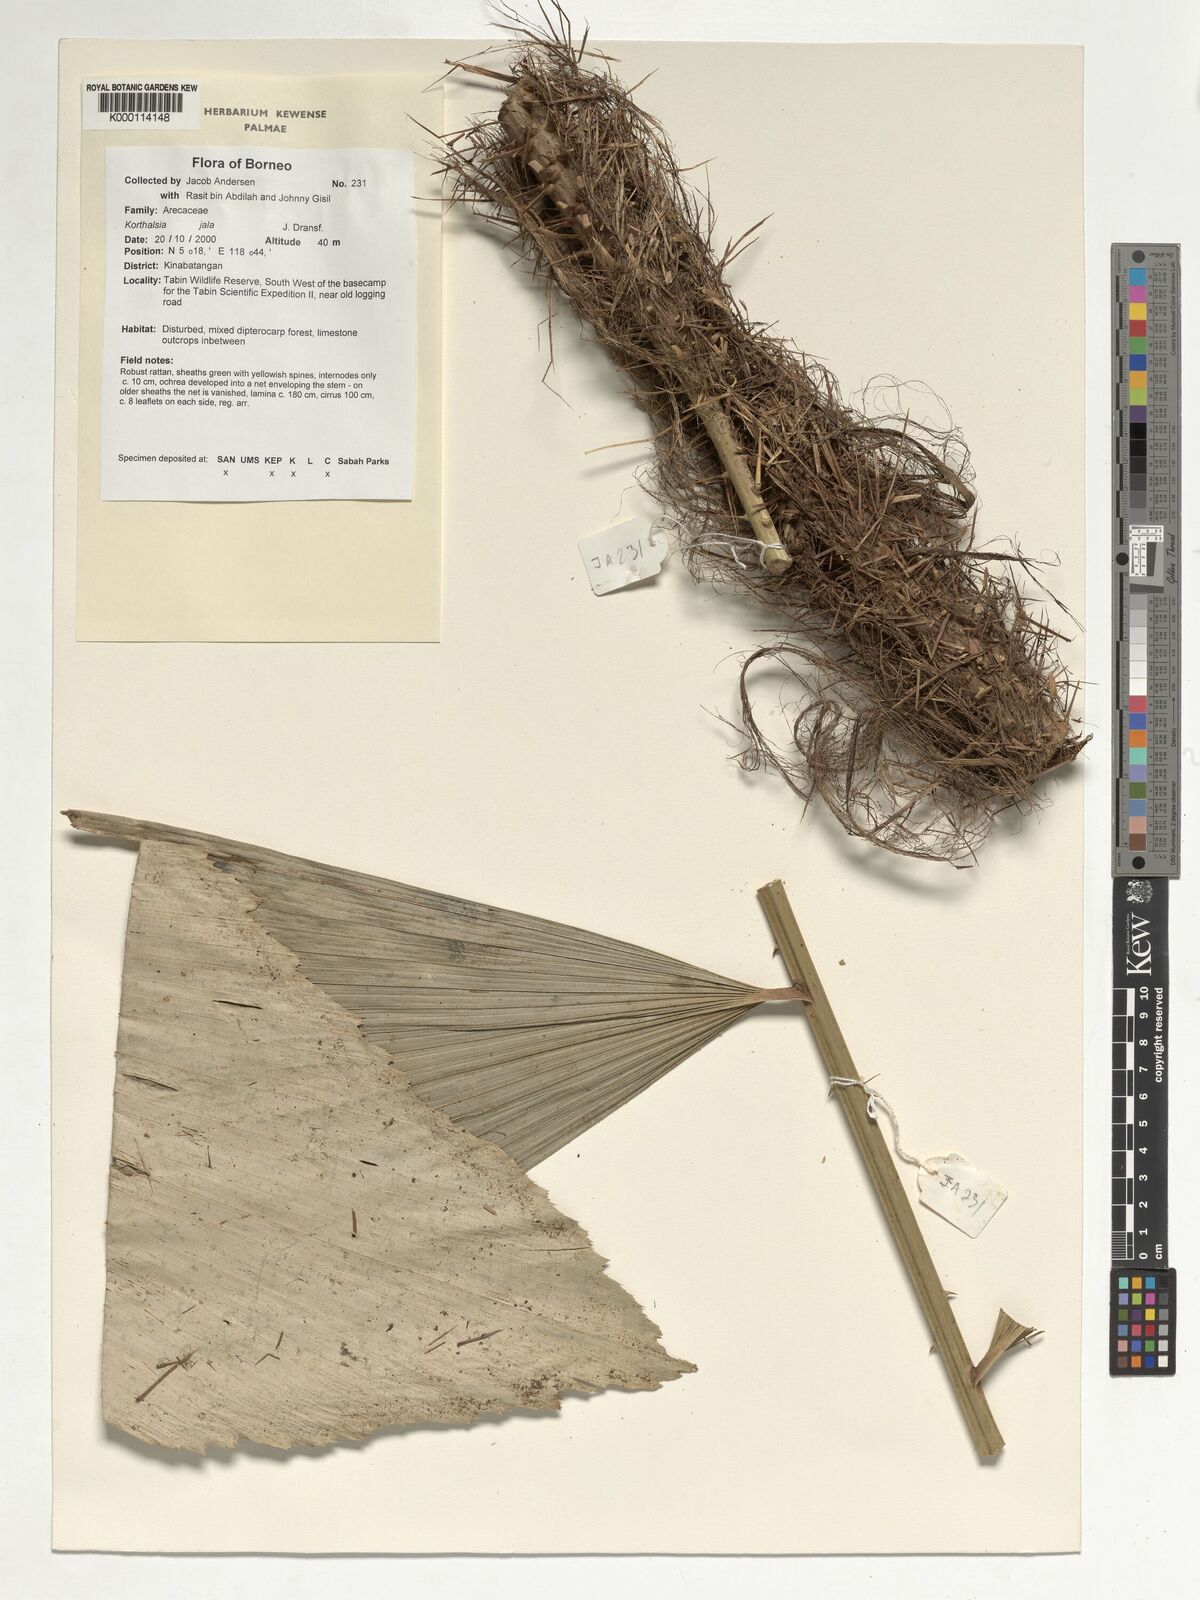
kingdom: Plantae
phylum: Tracheophyta
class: Liliopsida
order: Arecales
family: Arecaceae
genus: Korthalsia
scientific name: Korthalsia jala
